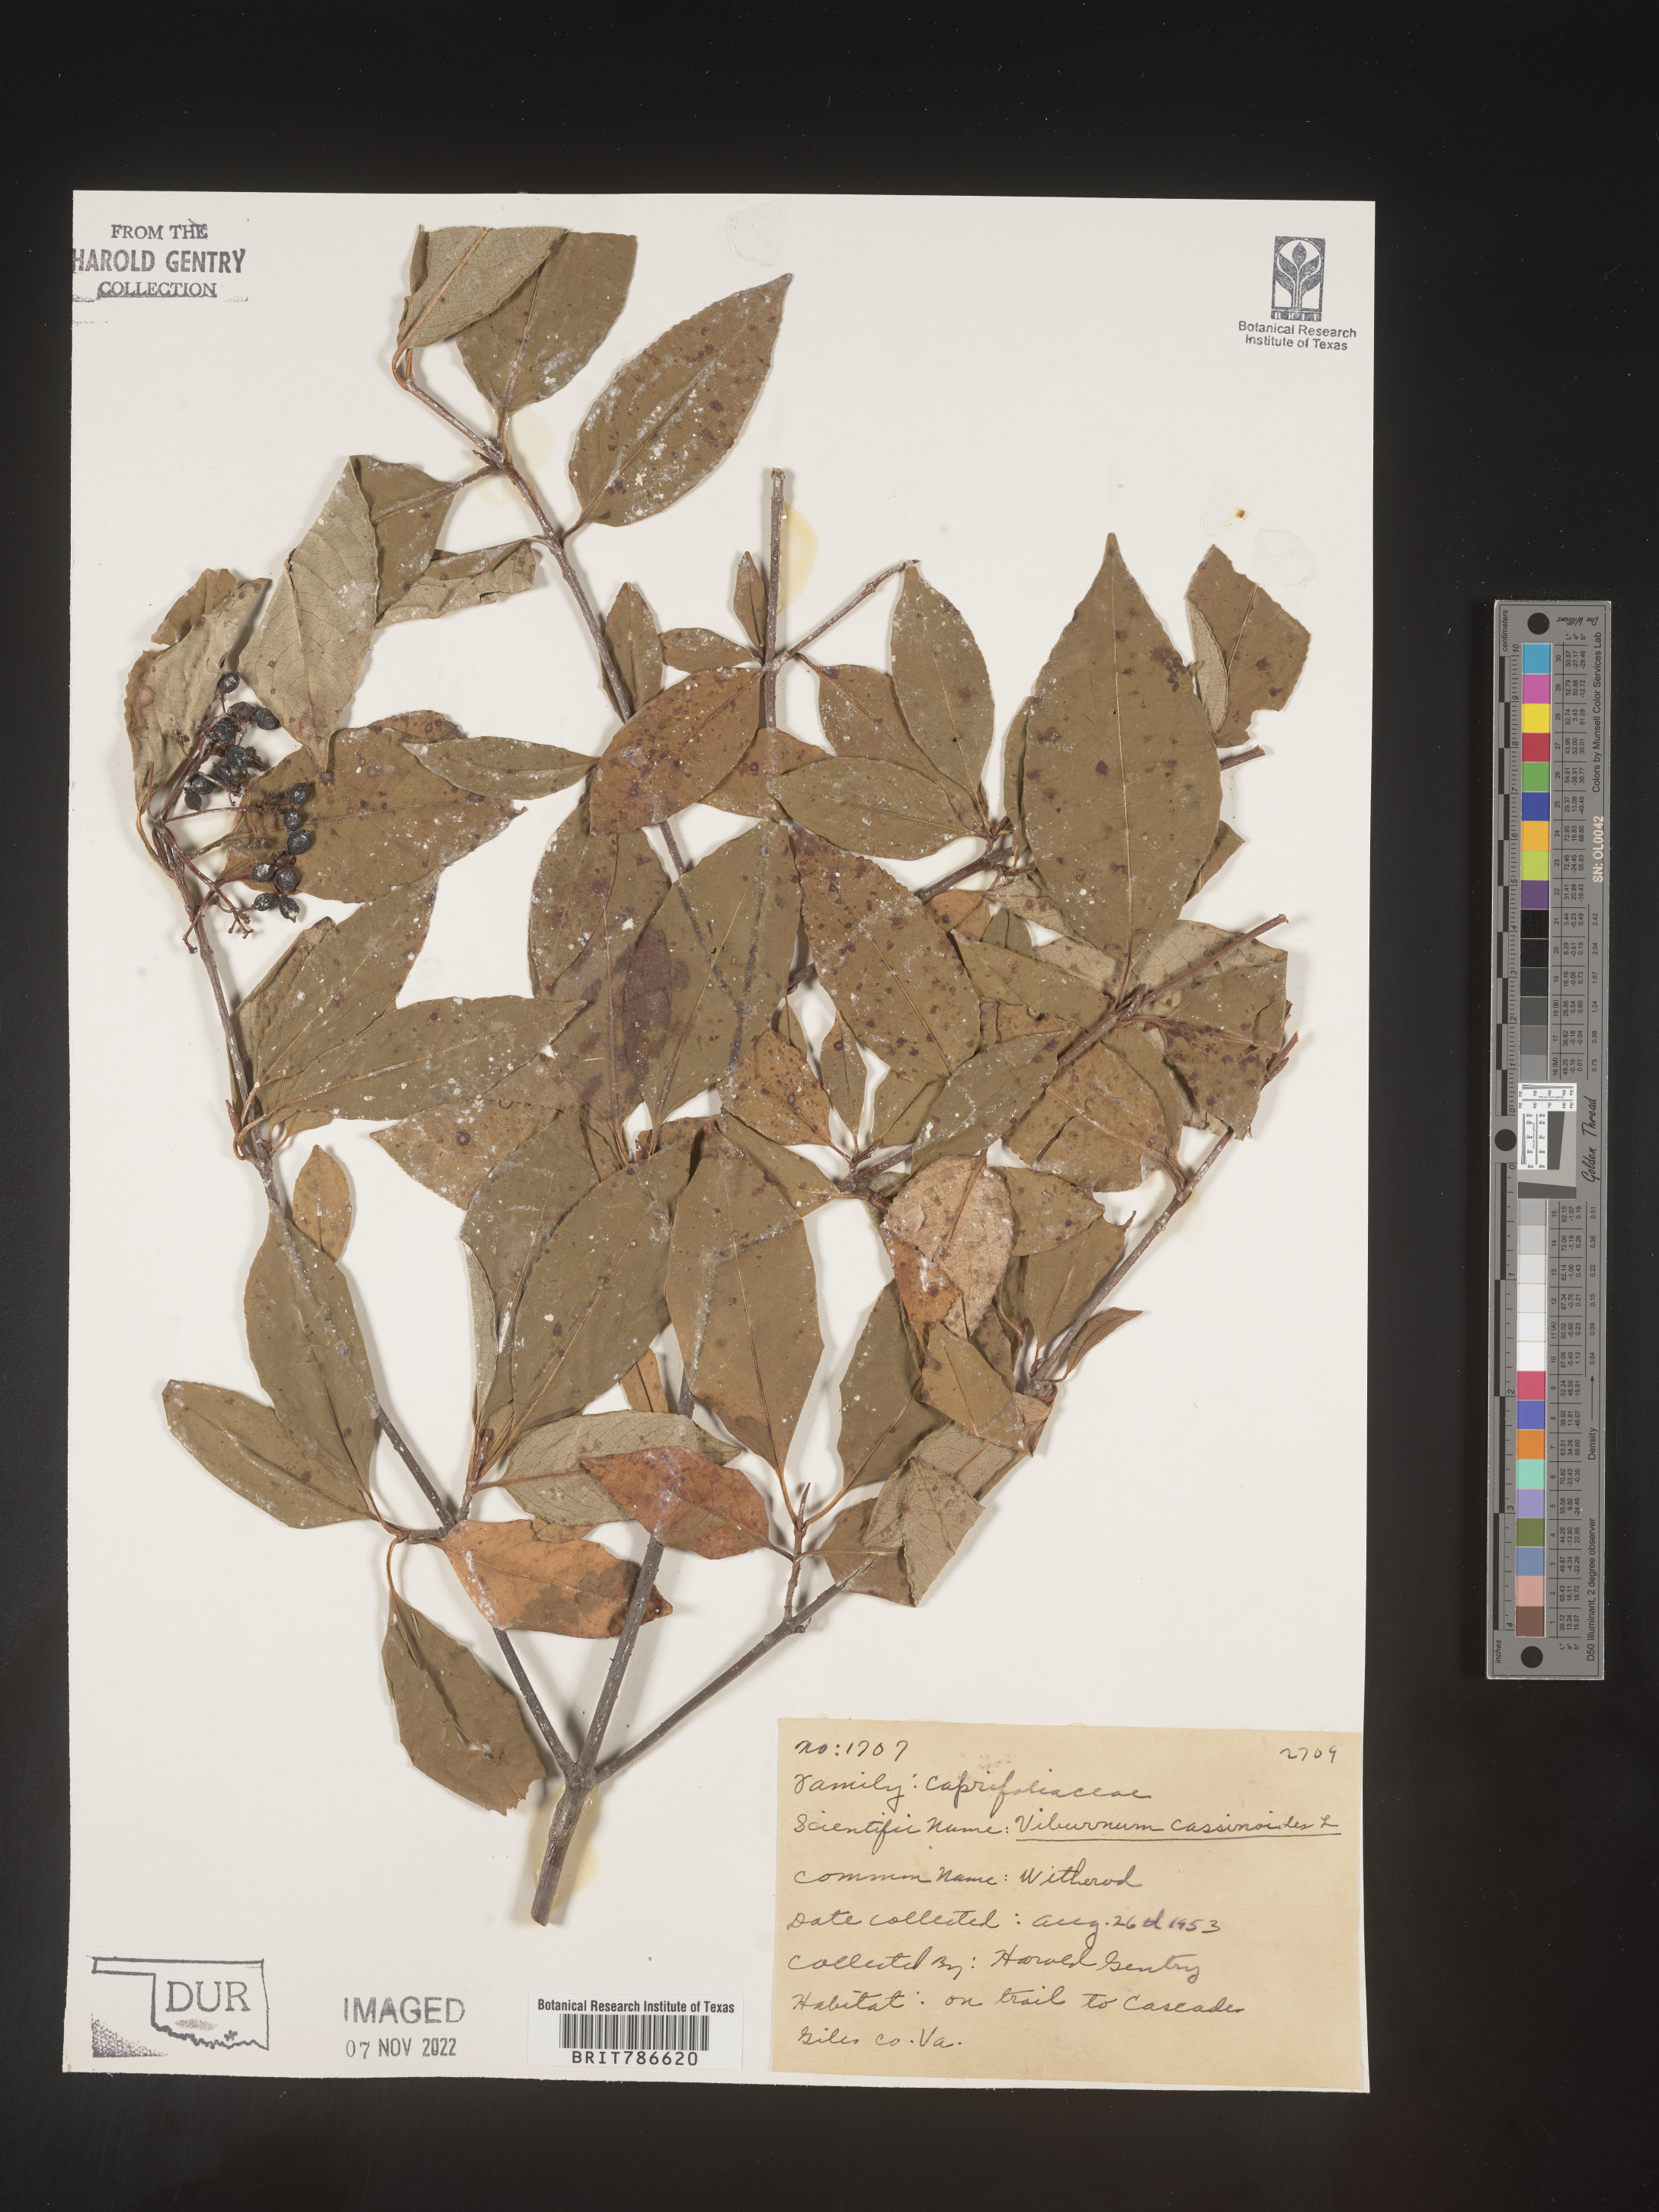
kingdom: Plantae
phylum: Tracheophyta
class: Magnoliopsida
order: Dipsacales
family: Viburnaceae
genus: Viburnum
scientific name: Viburnum cassinoides
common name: Swamp haw
